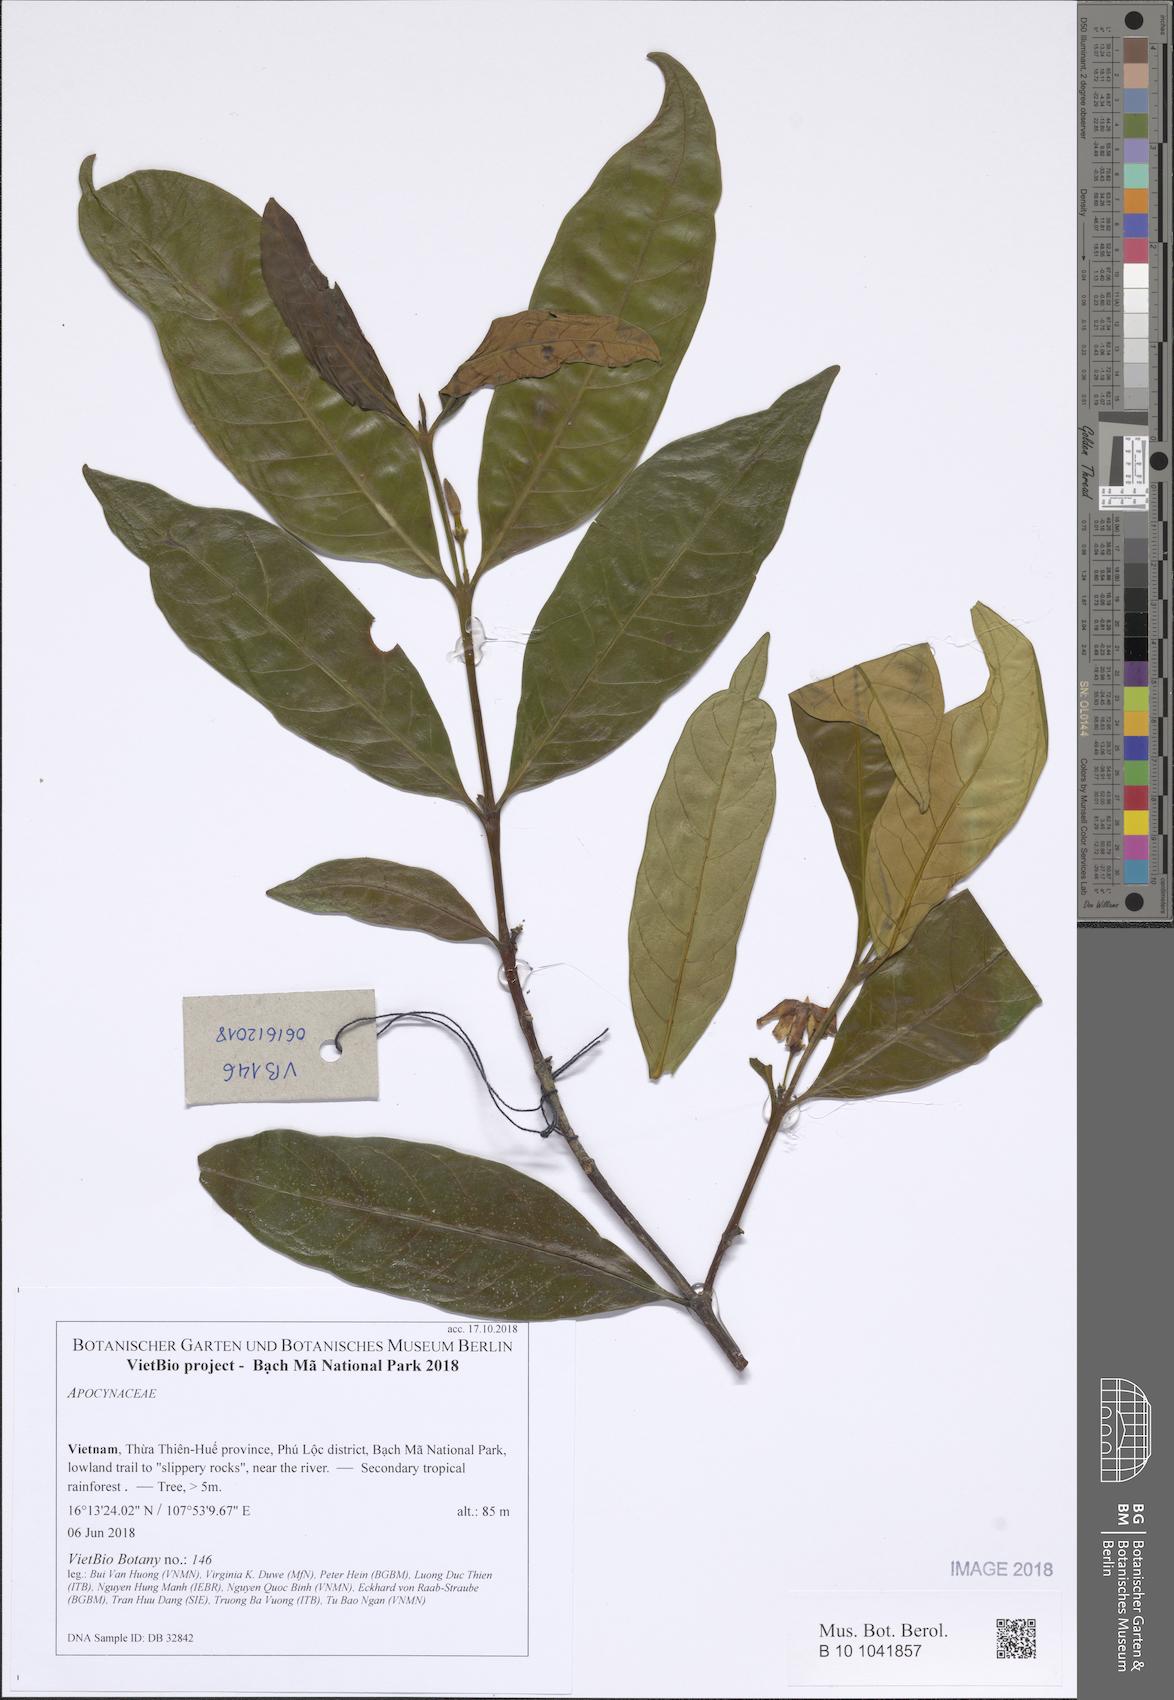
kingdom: Plantae
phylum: Tracheophyta
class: Magnoliopsida
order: Gentianales
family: Apocynaceae
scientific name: Apocynaceae
